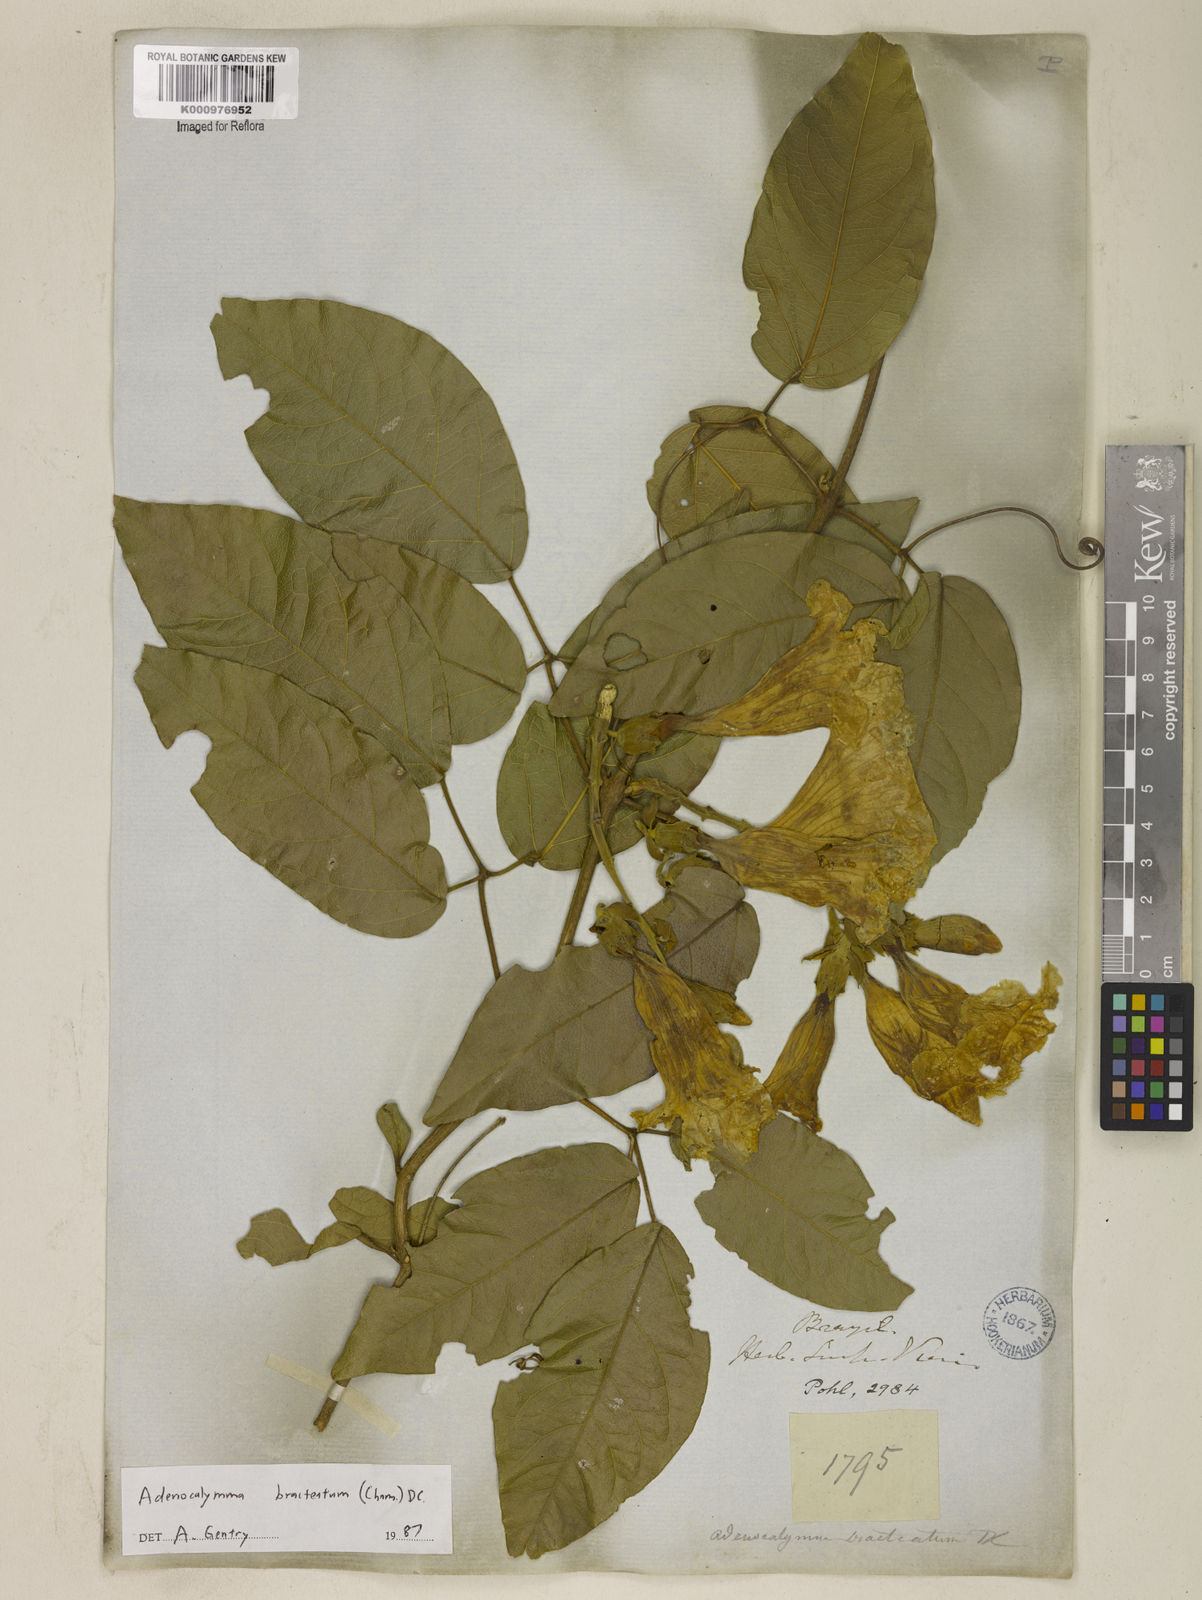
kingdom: Plantae
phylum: Tracheophyta
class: Magnoliopsida
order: Lamiales
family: Bignoniaceae
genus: Adenocalymma
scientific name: Adenocalymma bracteatum
